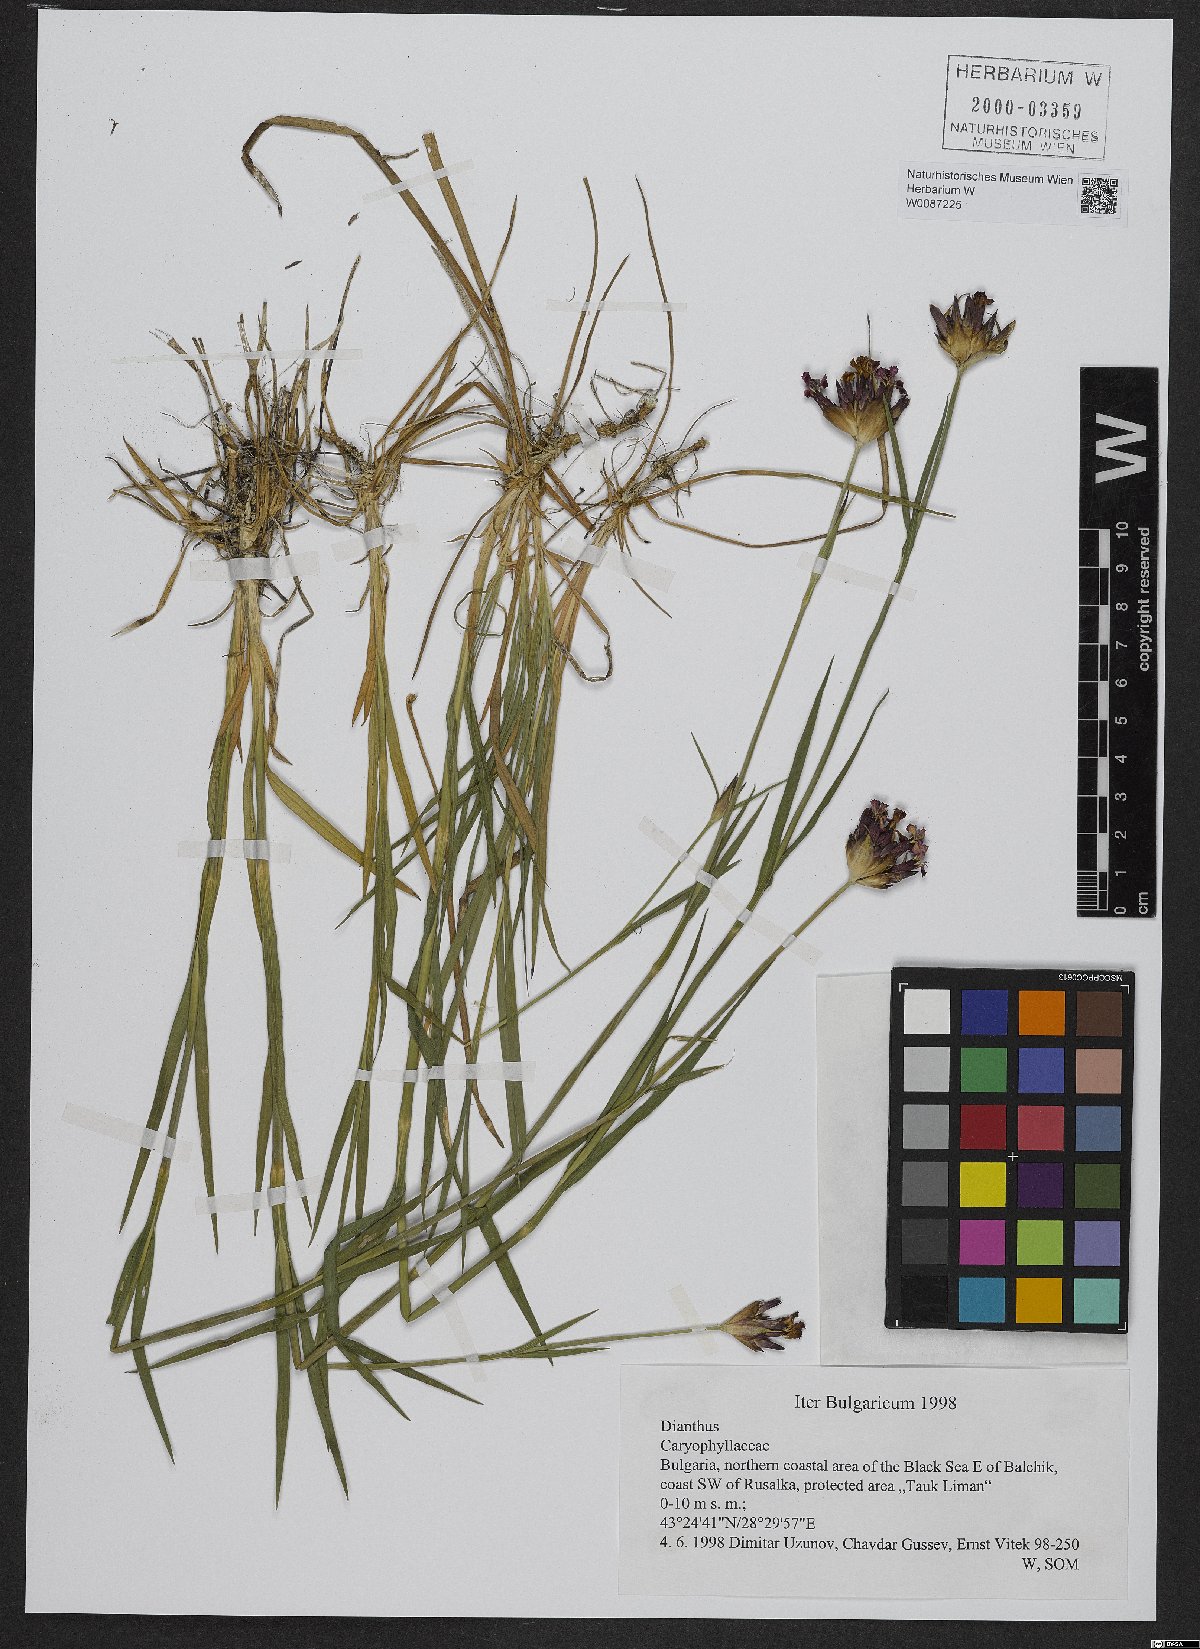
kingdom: Plantae
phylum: Tracheophyta
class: Magnoliopsida
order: Caryophyllales
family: Caryophyllaceae
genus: Dianthus
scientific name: Dianthus giganteus
